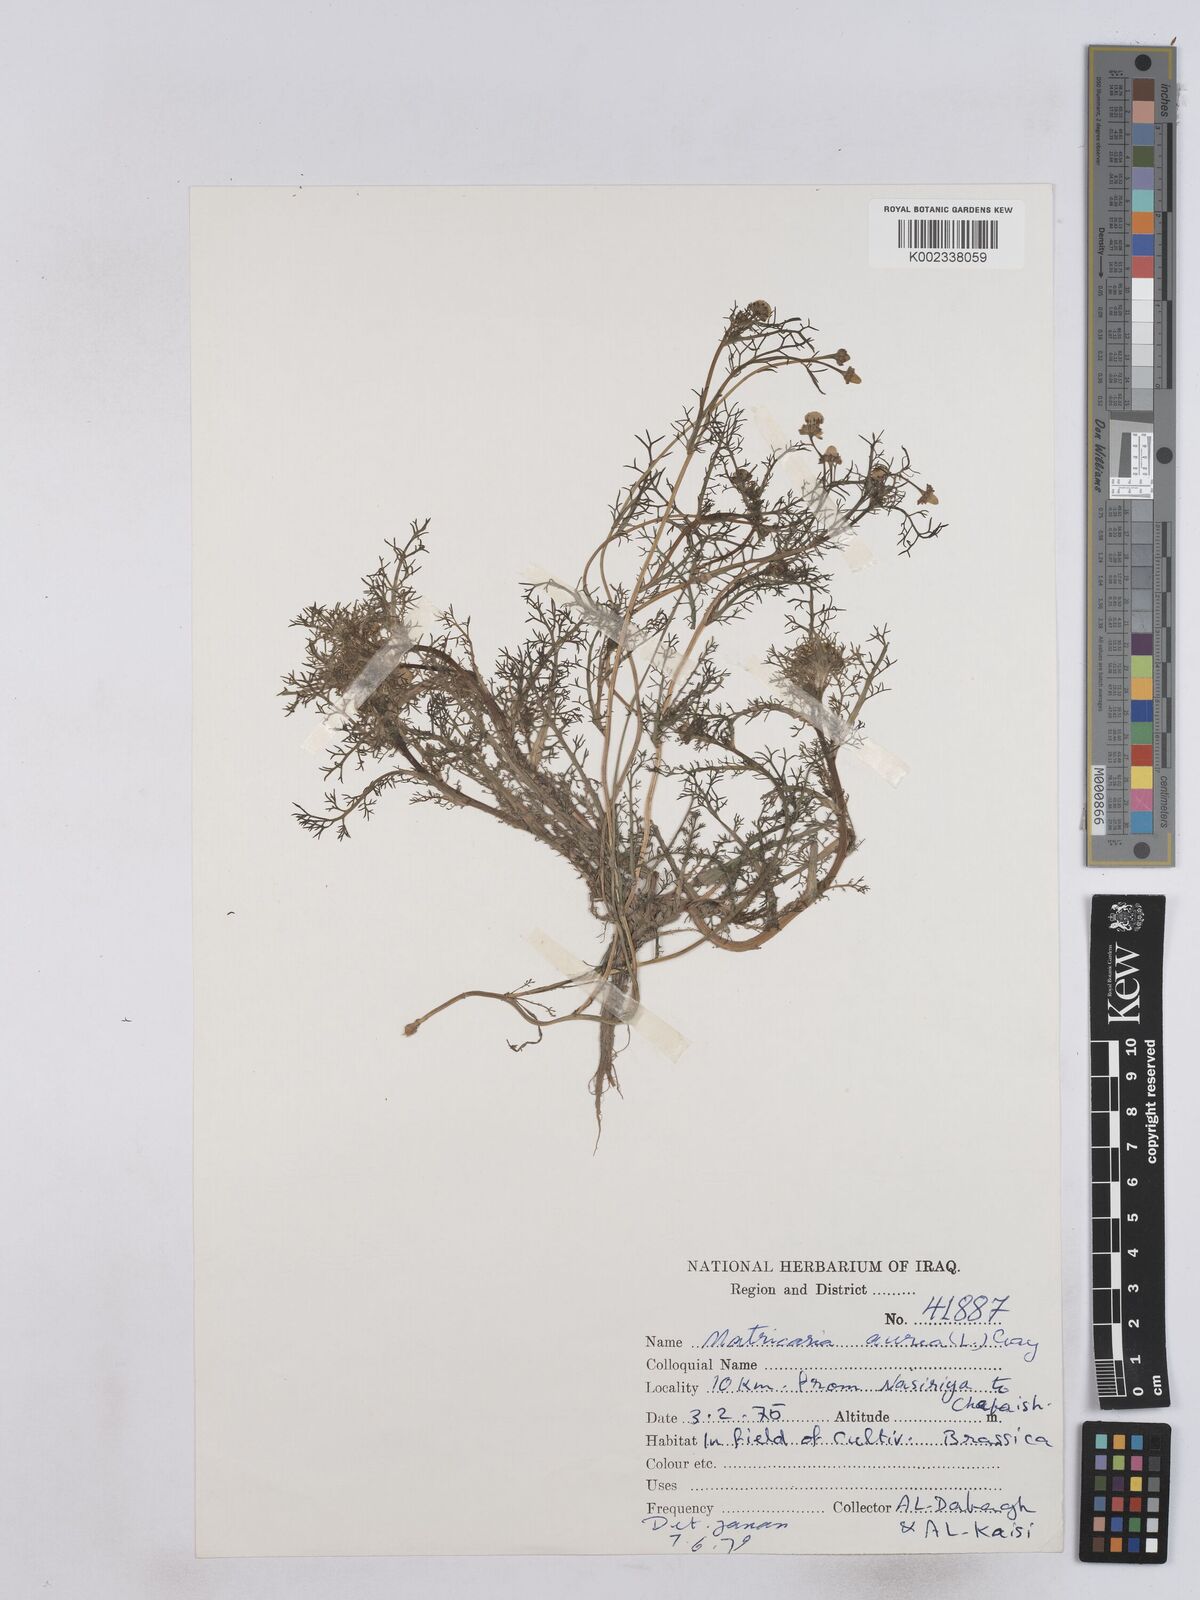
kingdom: Plantae
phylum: Tracheophyta
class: Magnoliopsida
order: Asterales
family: Asteraceae
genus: Matricaria
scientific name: Matricaria aurea
